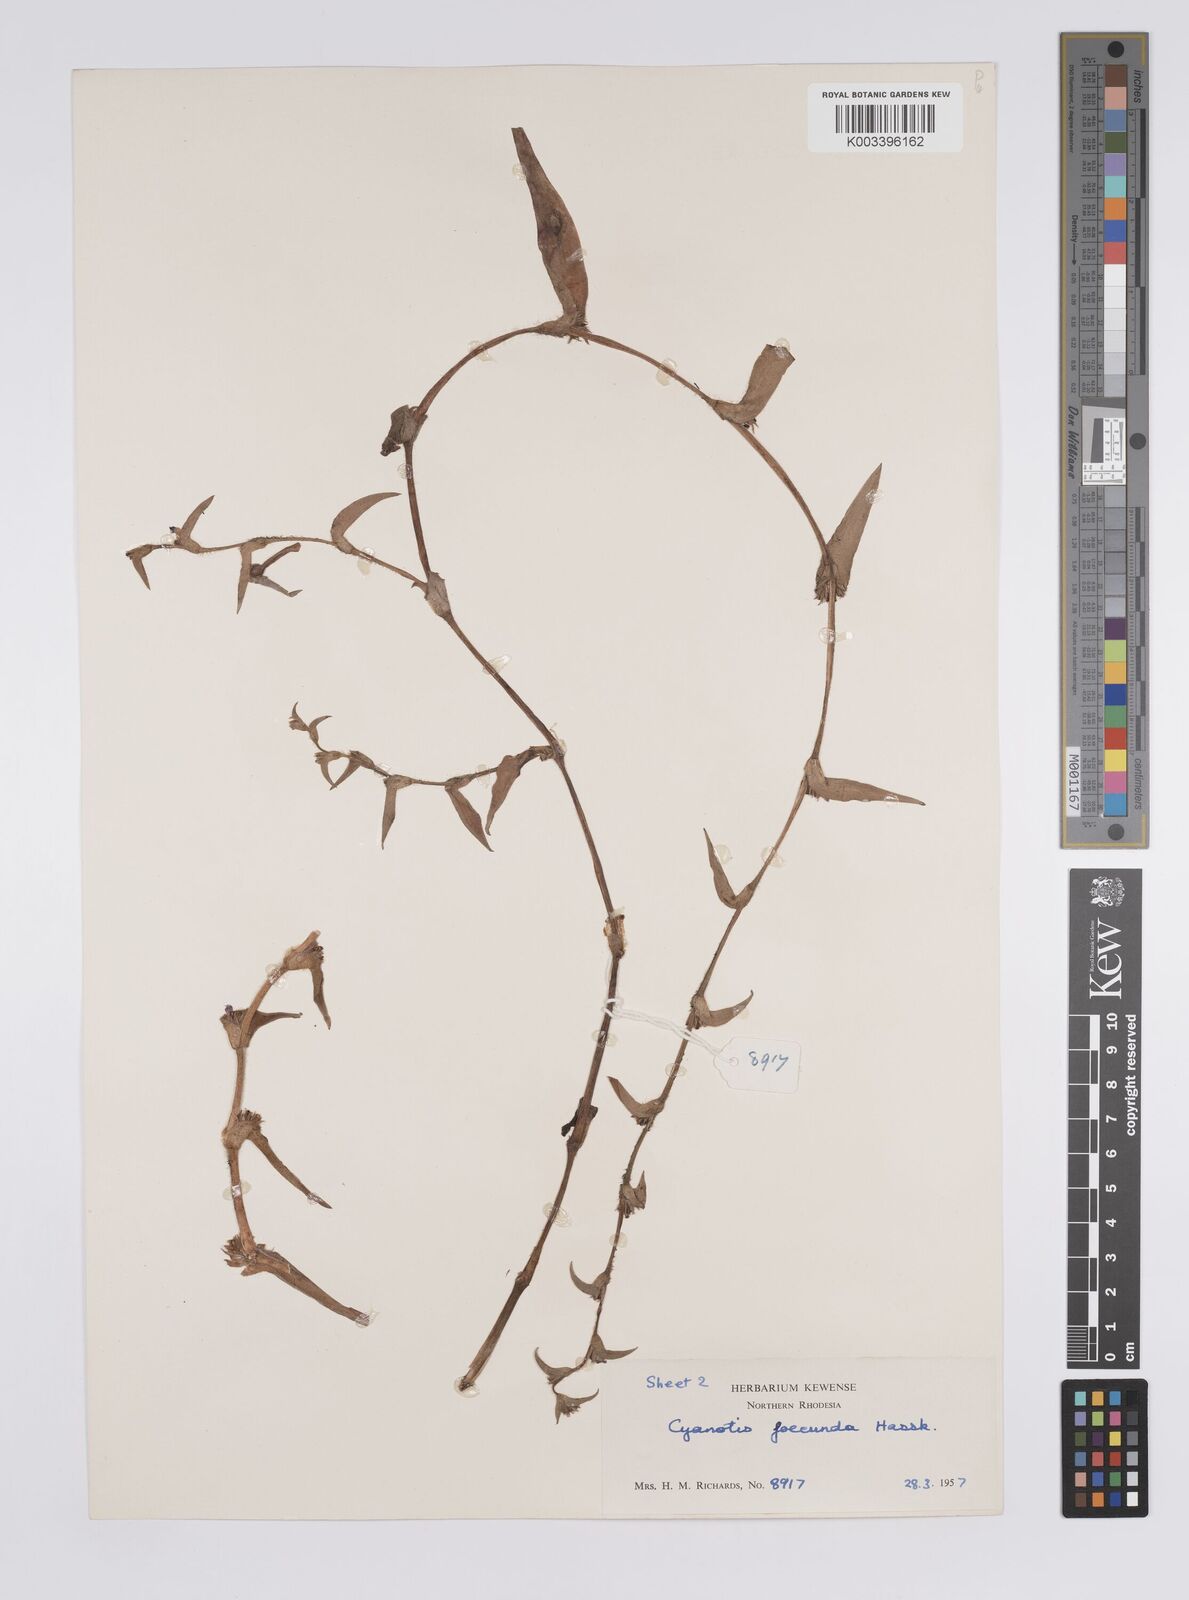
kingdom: Plantae
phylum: Tracheophyta
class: Liliopsida
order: Commelinales
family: Commelinaceae
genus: Cyanotis
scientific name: Cyanotis foecunda
